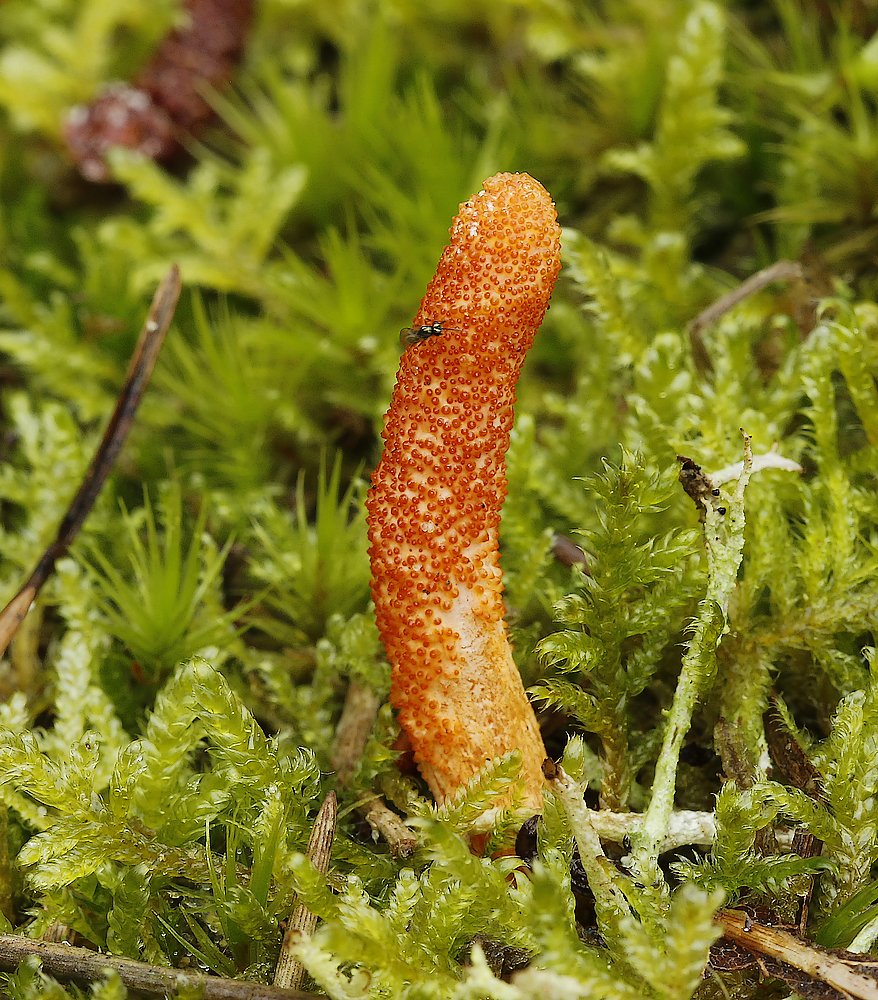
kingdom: Fungi
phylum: Ascomycota
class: Sordariomycetes
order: Hypocreales
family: Cordycipitaceae
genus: Cordyceps
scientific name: Cordyceps militaris
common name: puppe-snyltekølle
